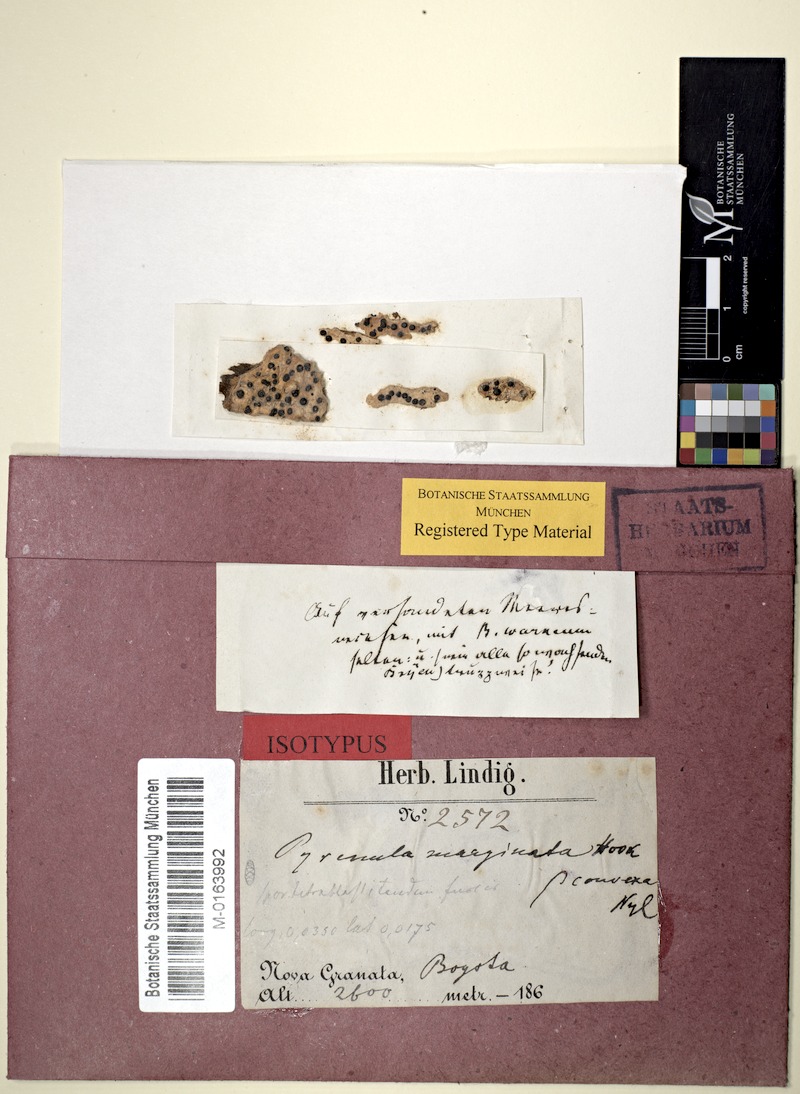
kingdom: Fungi
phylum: Ascomycota
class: Eurotiomycetes
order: Pyrenulales
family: Pyrenulaceae
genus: Pyrenula
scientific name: Pyrenula convexa
